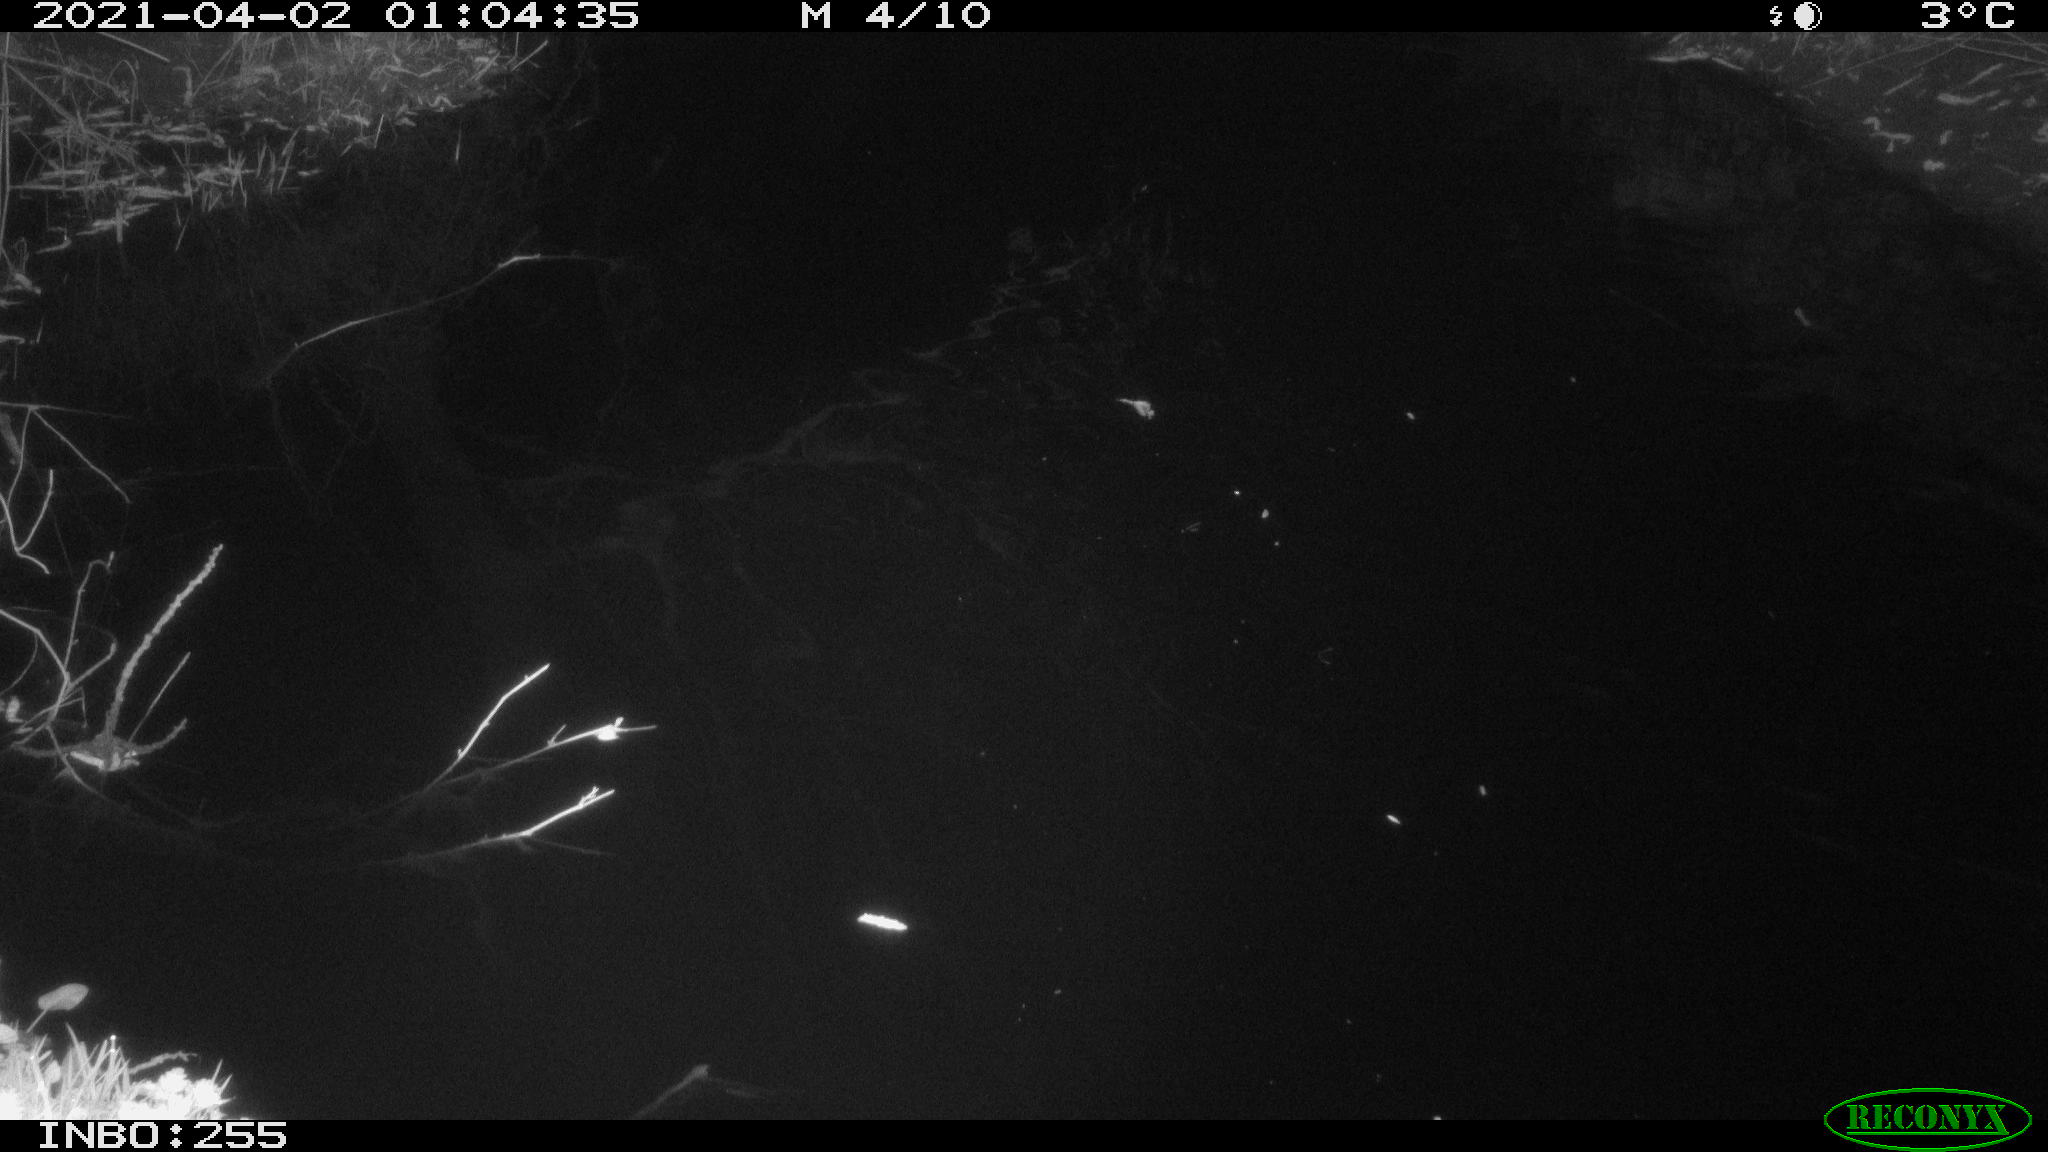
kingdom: Animalia
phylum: Chordata
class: Aves
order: Anseriformes
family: Anatidae
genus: Anas
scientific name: Anas platyrhynchos
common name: Mallard
